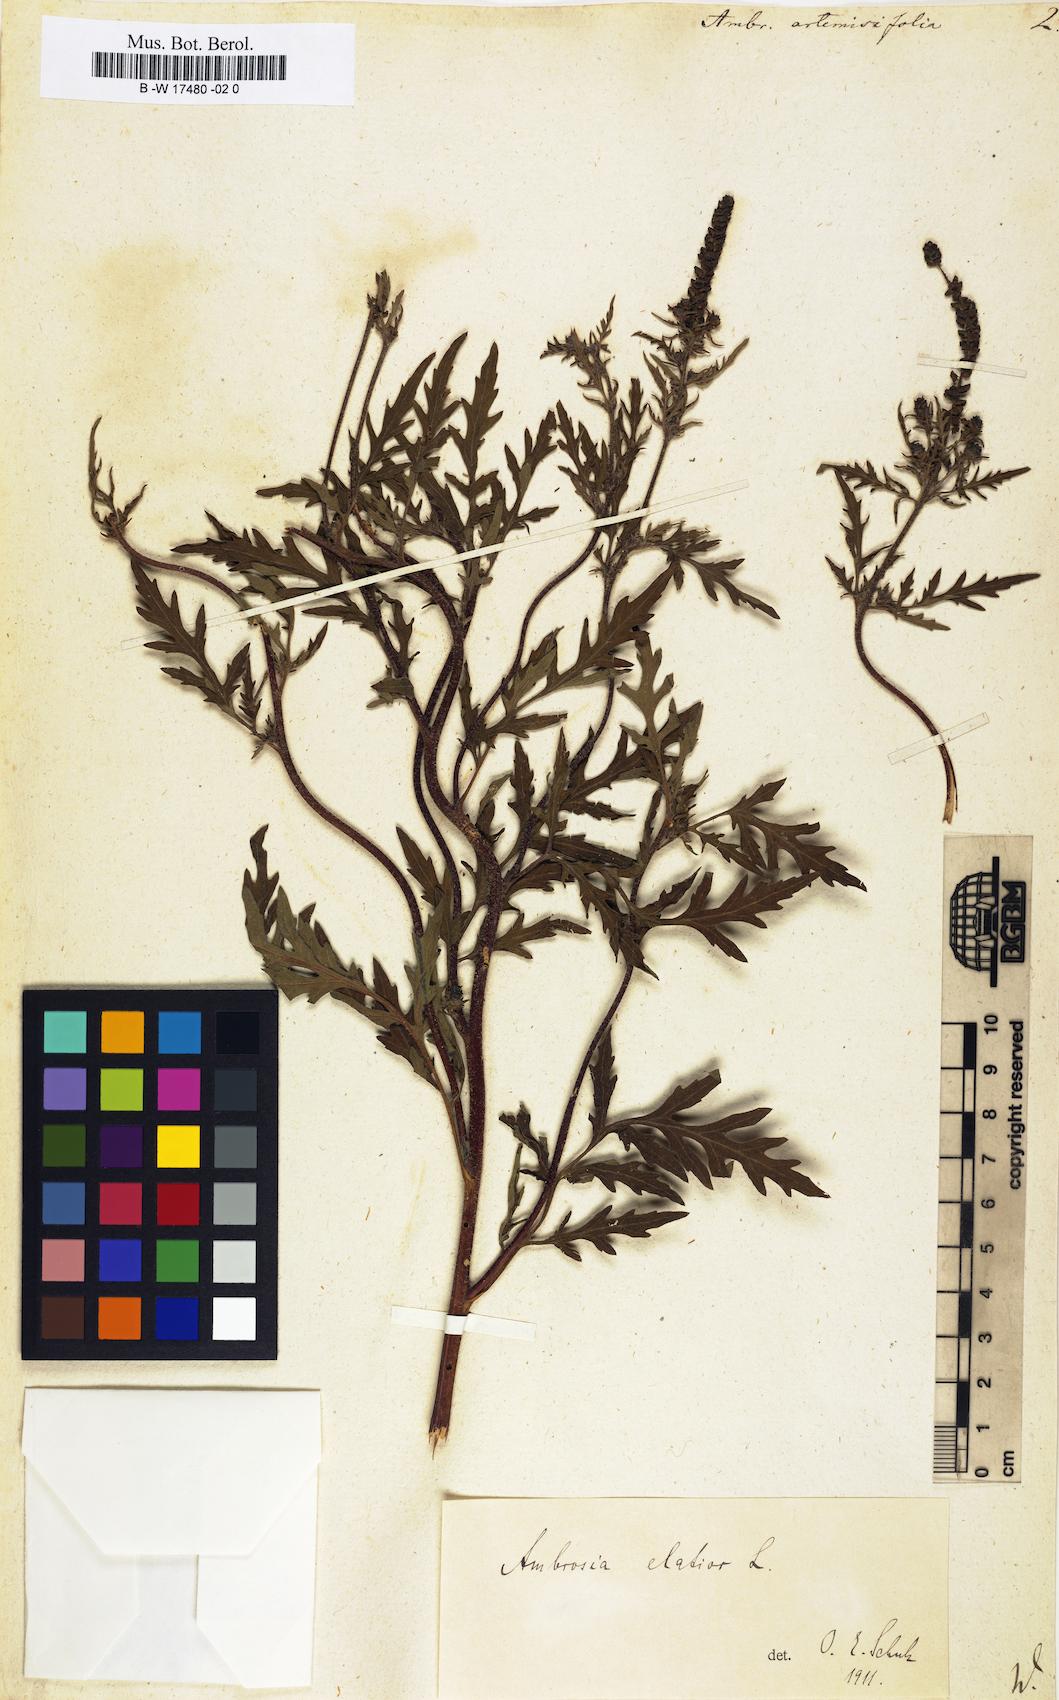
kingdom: Plantae
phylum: Tracheophyta
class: Magnoliopsida
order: Asterales
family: Asteraceae
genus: Ambrosia
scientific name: Ambrosia artemisiifolia
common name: Annual ragweed
